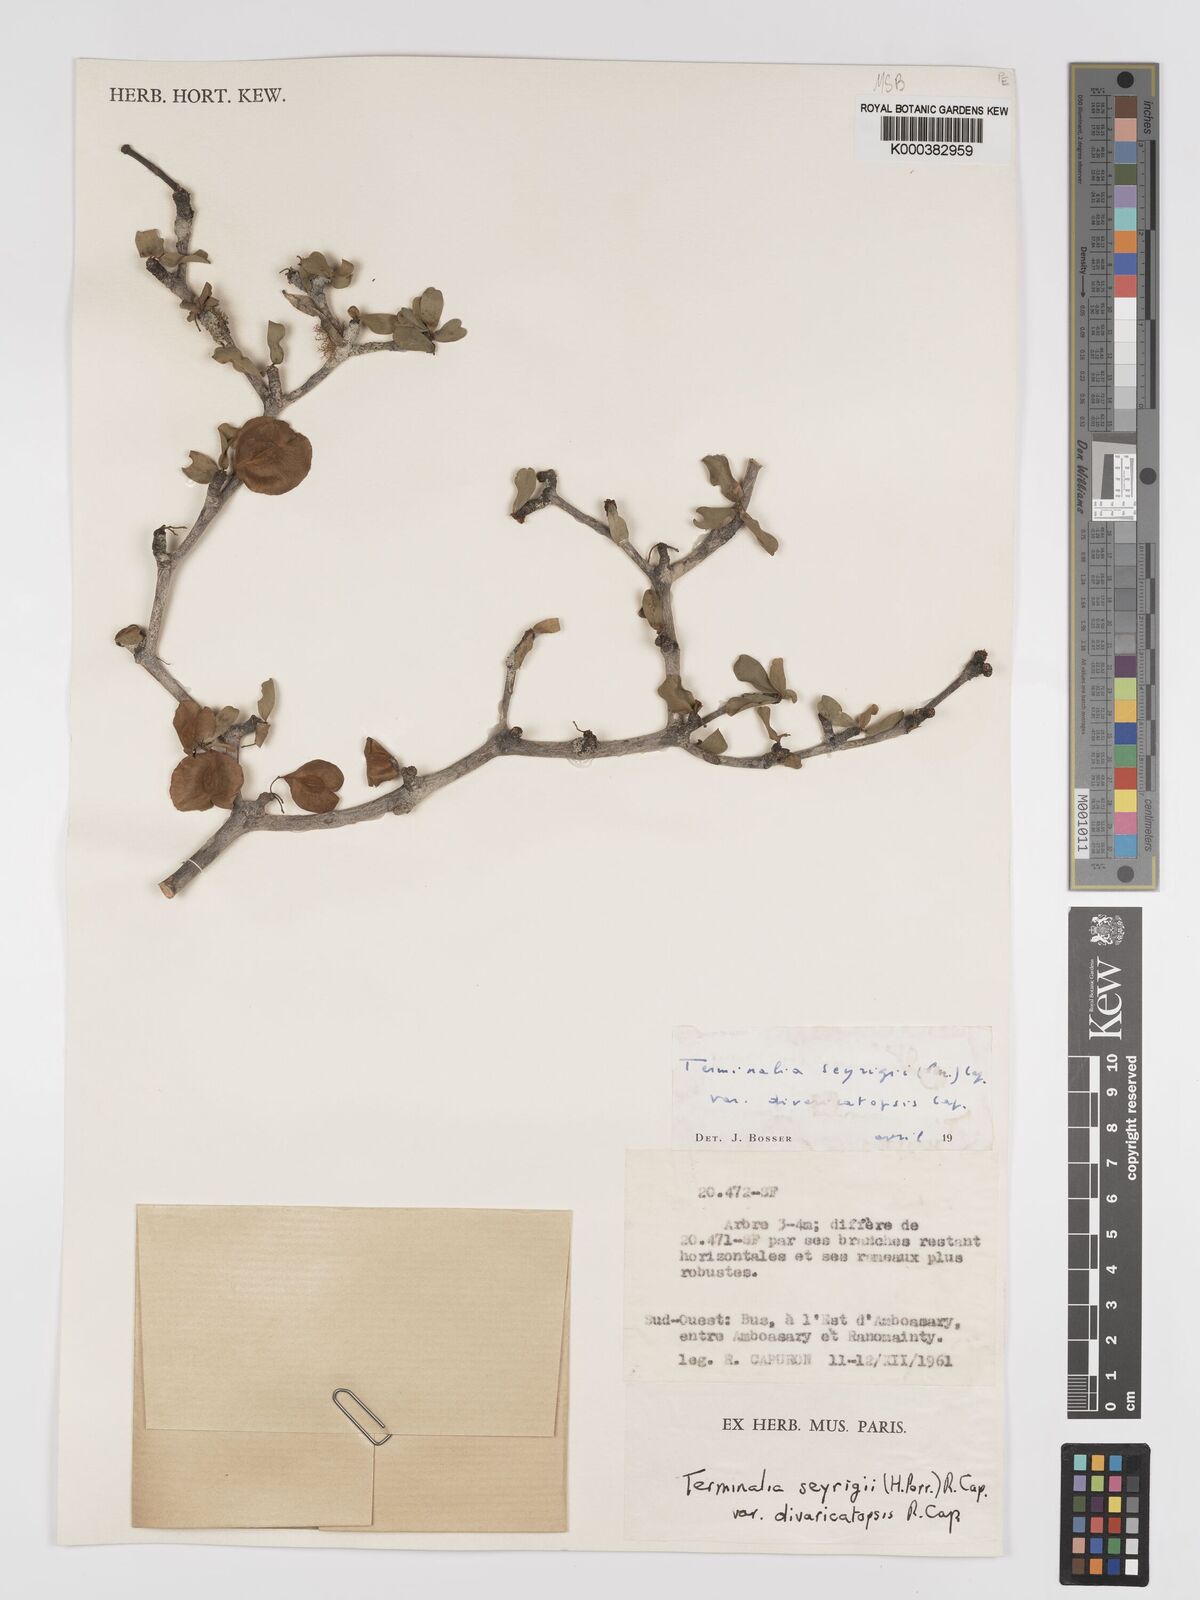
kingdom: Plantae
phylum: Tracheophyta
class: Magnoliopsida
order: Myrtales
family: Combretaceae
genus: Terminalia
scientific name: Terminalia
